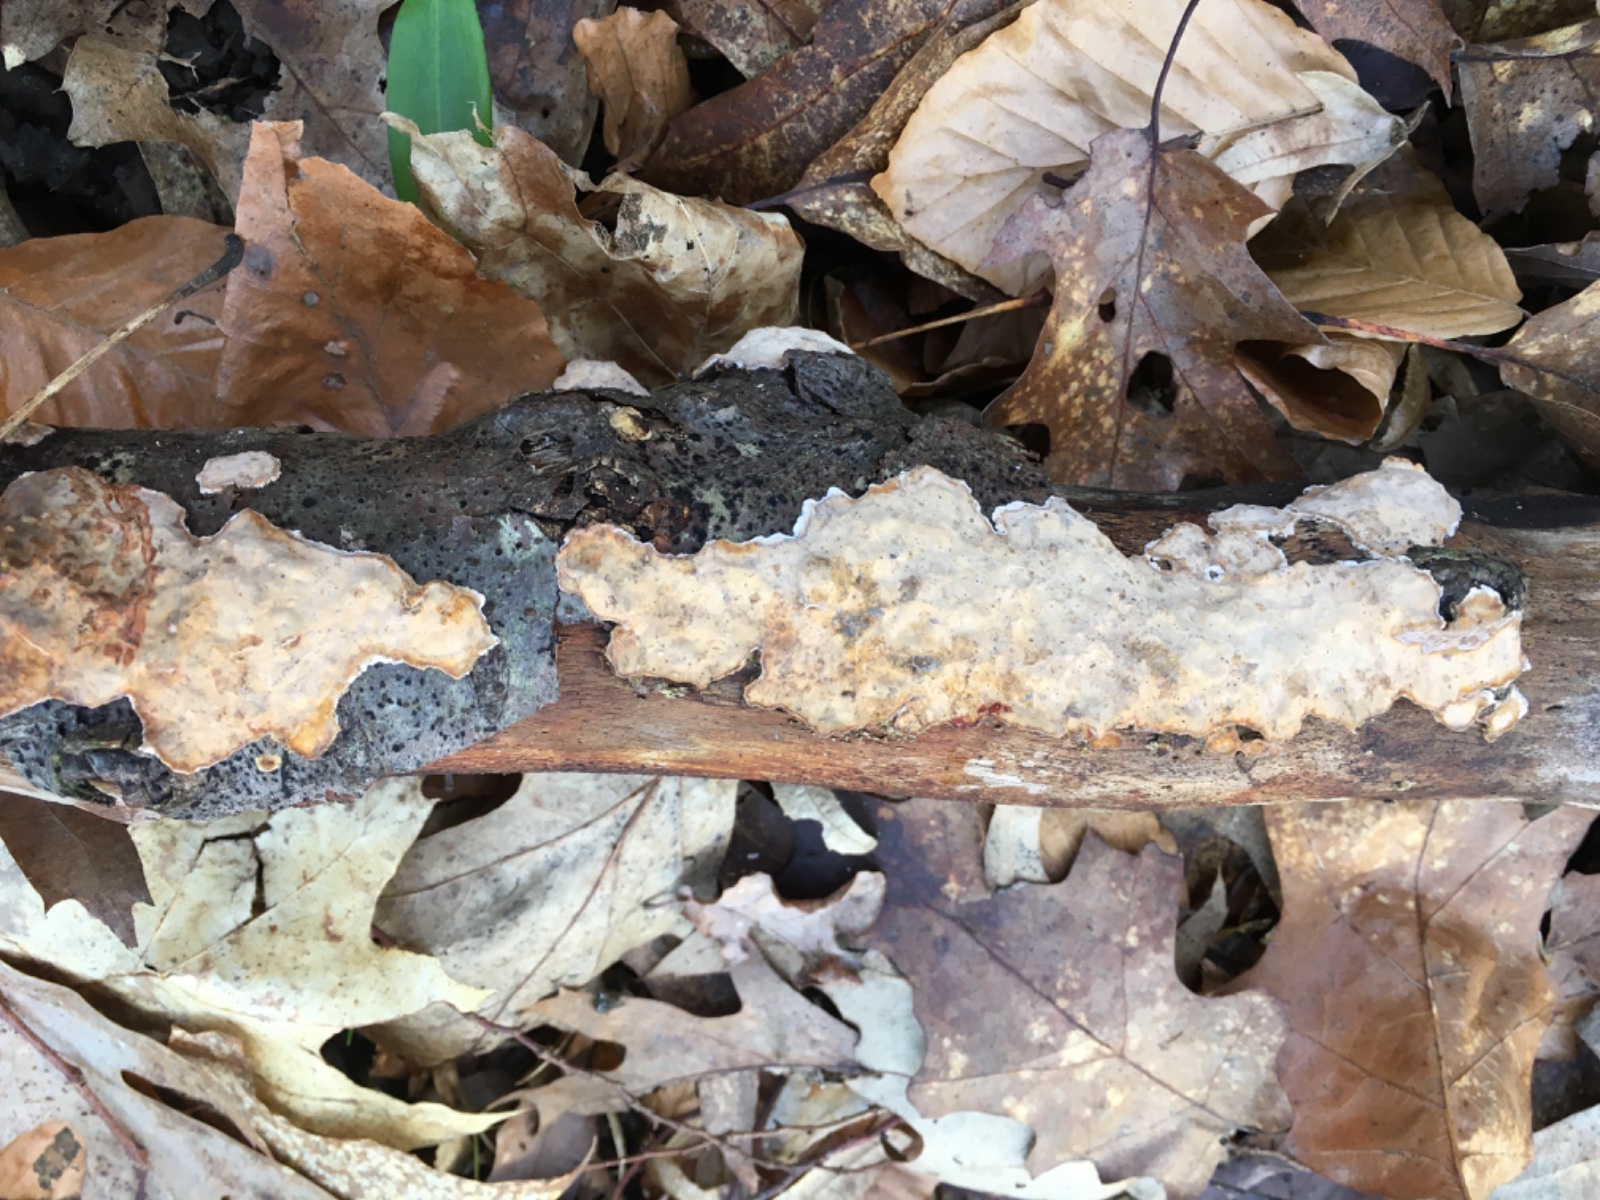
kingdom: Fungi
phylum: Basidiomycota
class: Agaricomycetes
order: Russulales
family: Stereaceae
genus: Stereum
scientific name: Stereum rugosum
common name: rynket lædersvamp
